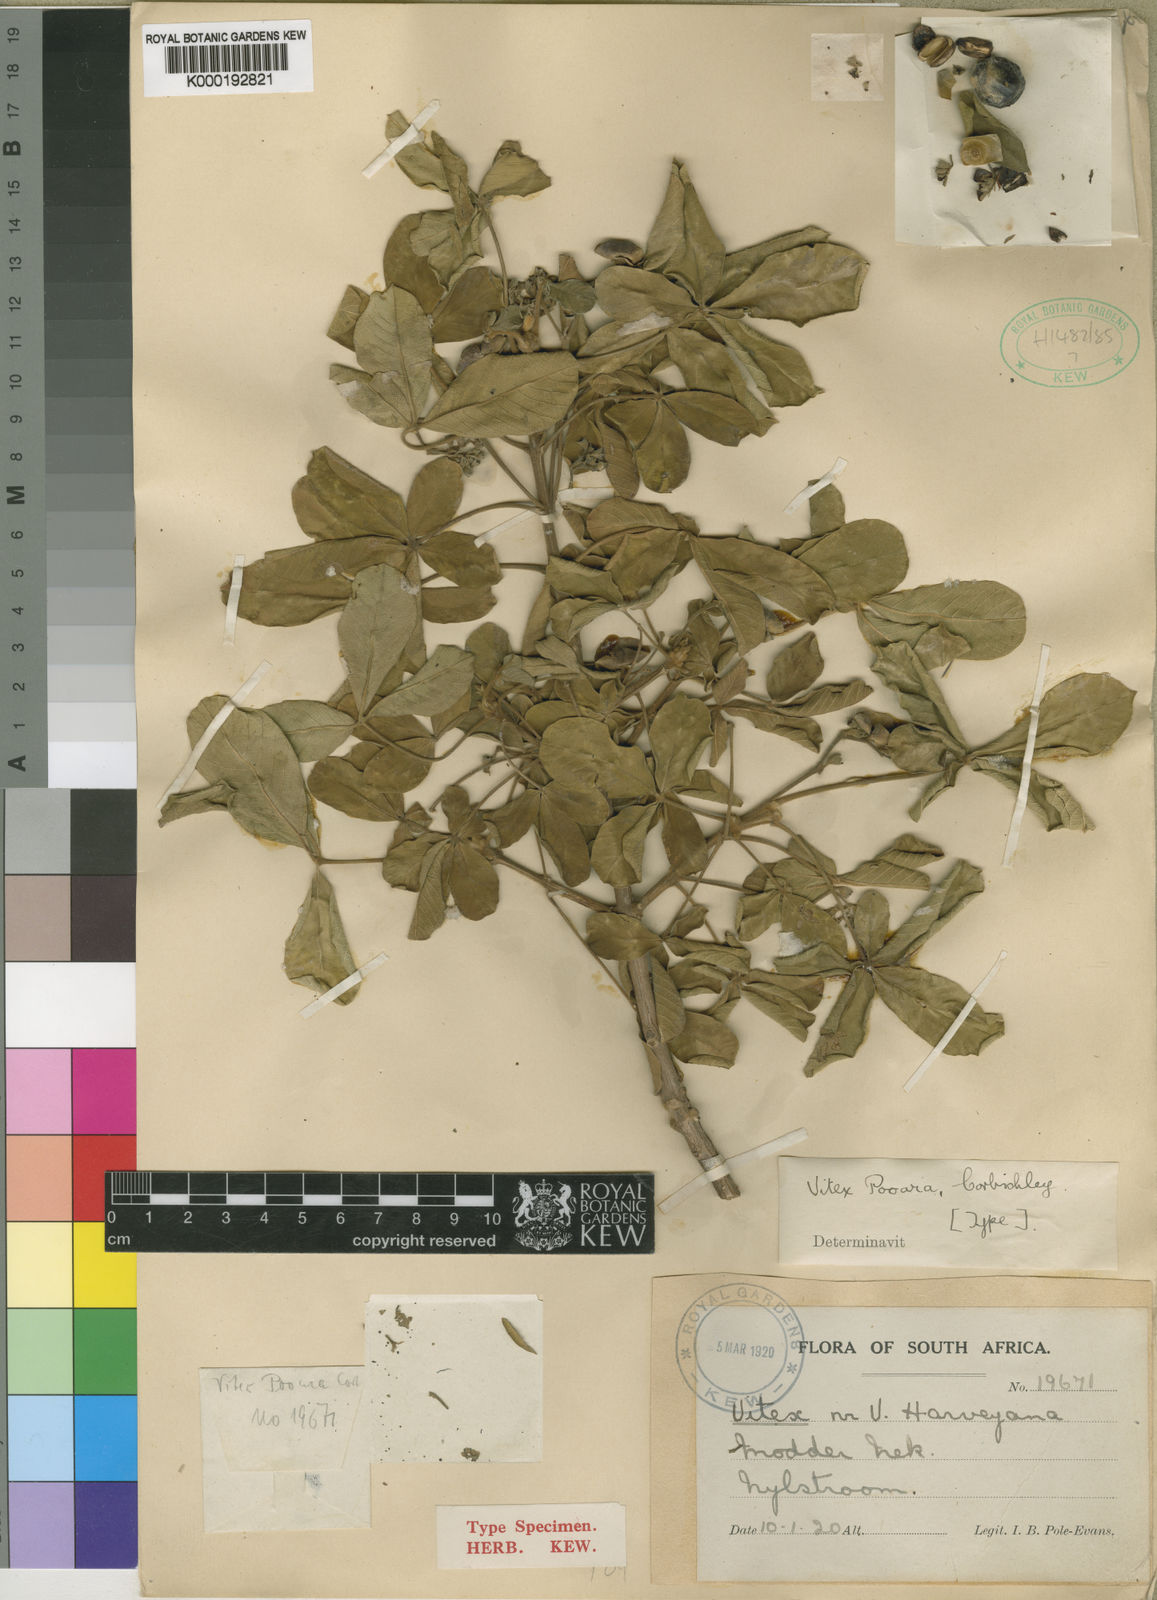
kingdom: Plantae
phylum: Tracheophyta
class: Magnoliopsida
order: Lamiales
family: Lamiaceae
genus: Vitex
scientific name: Vitex pooara
